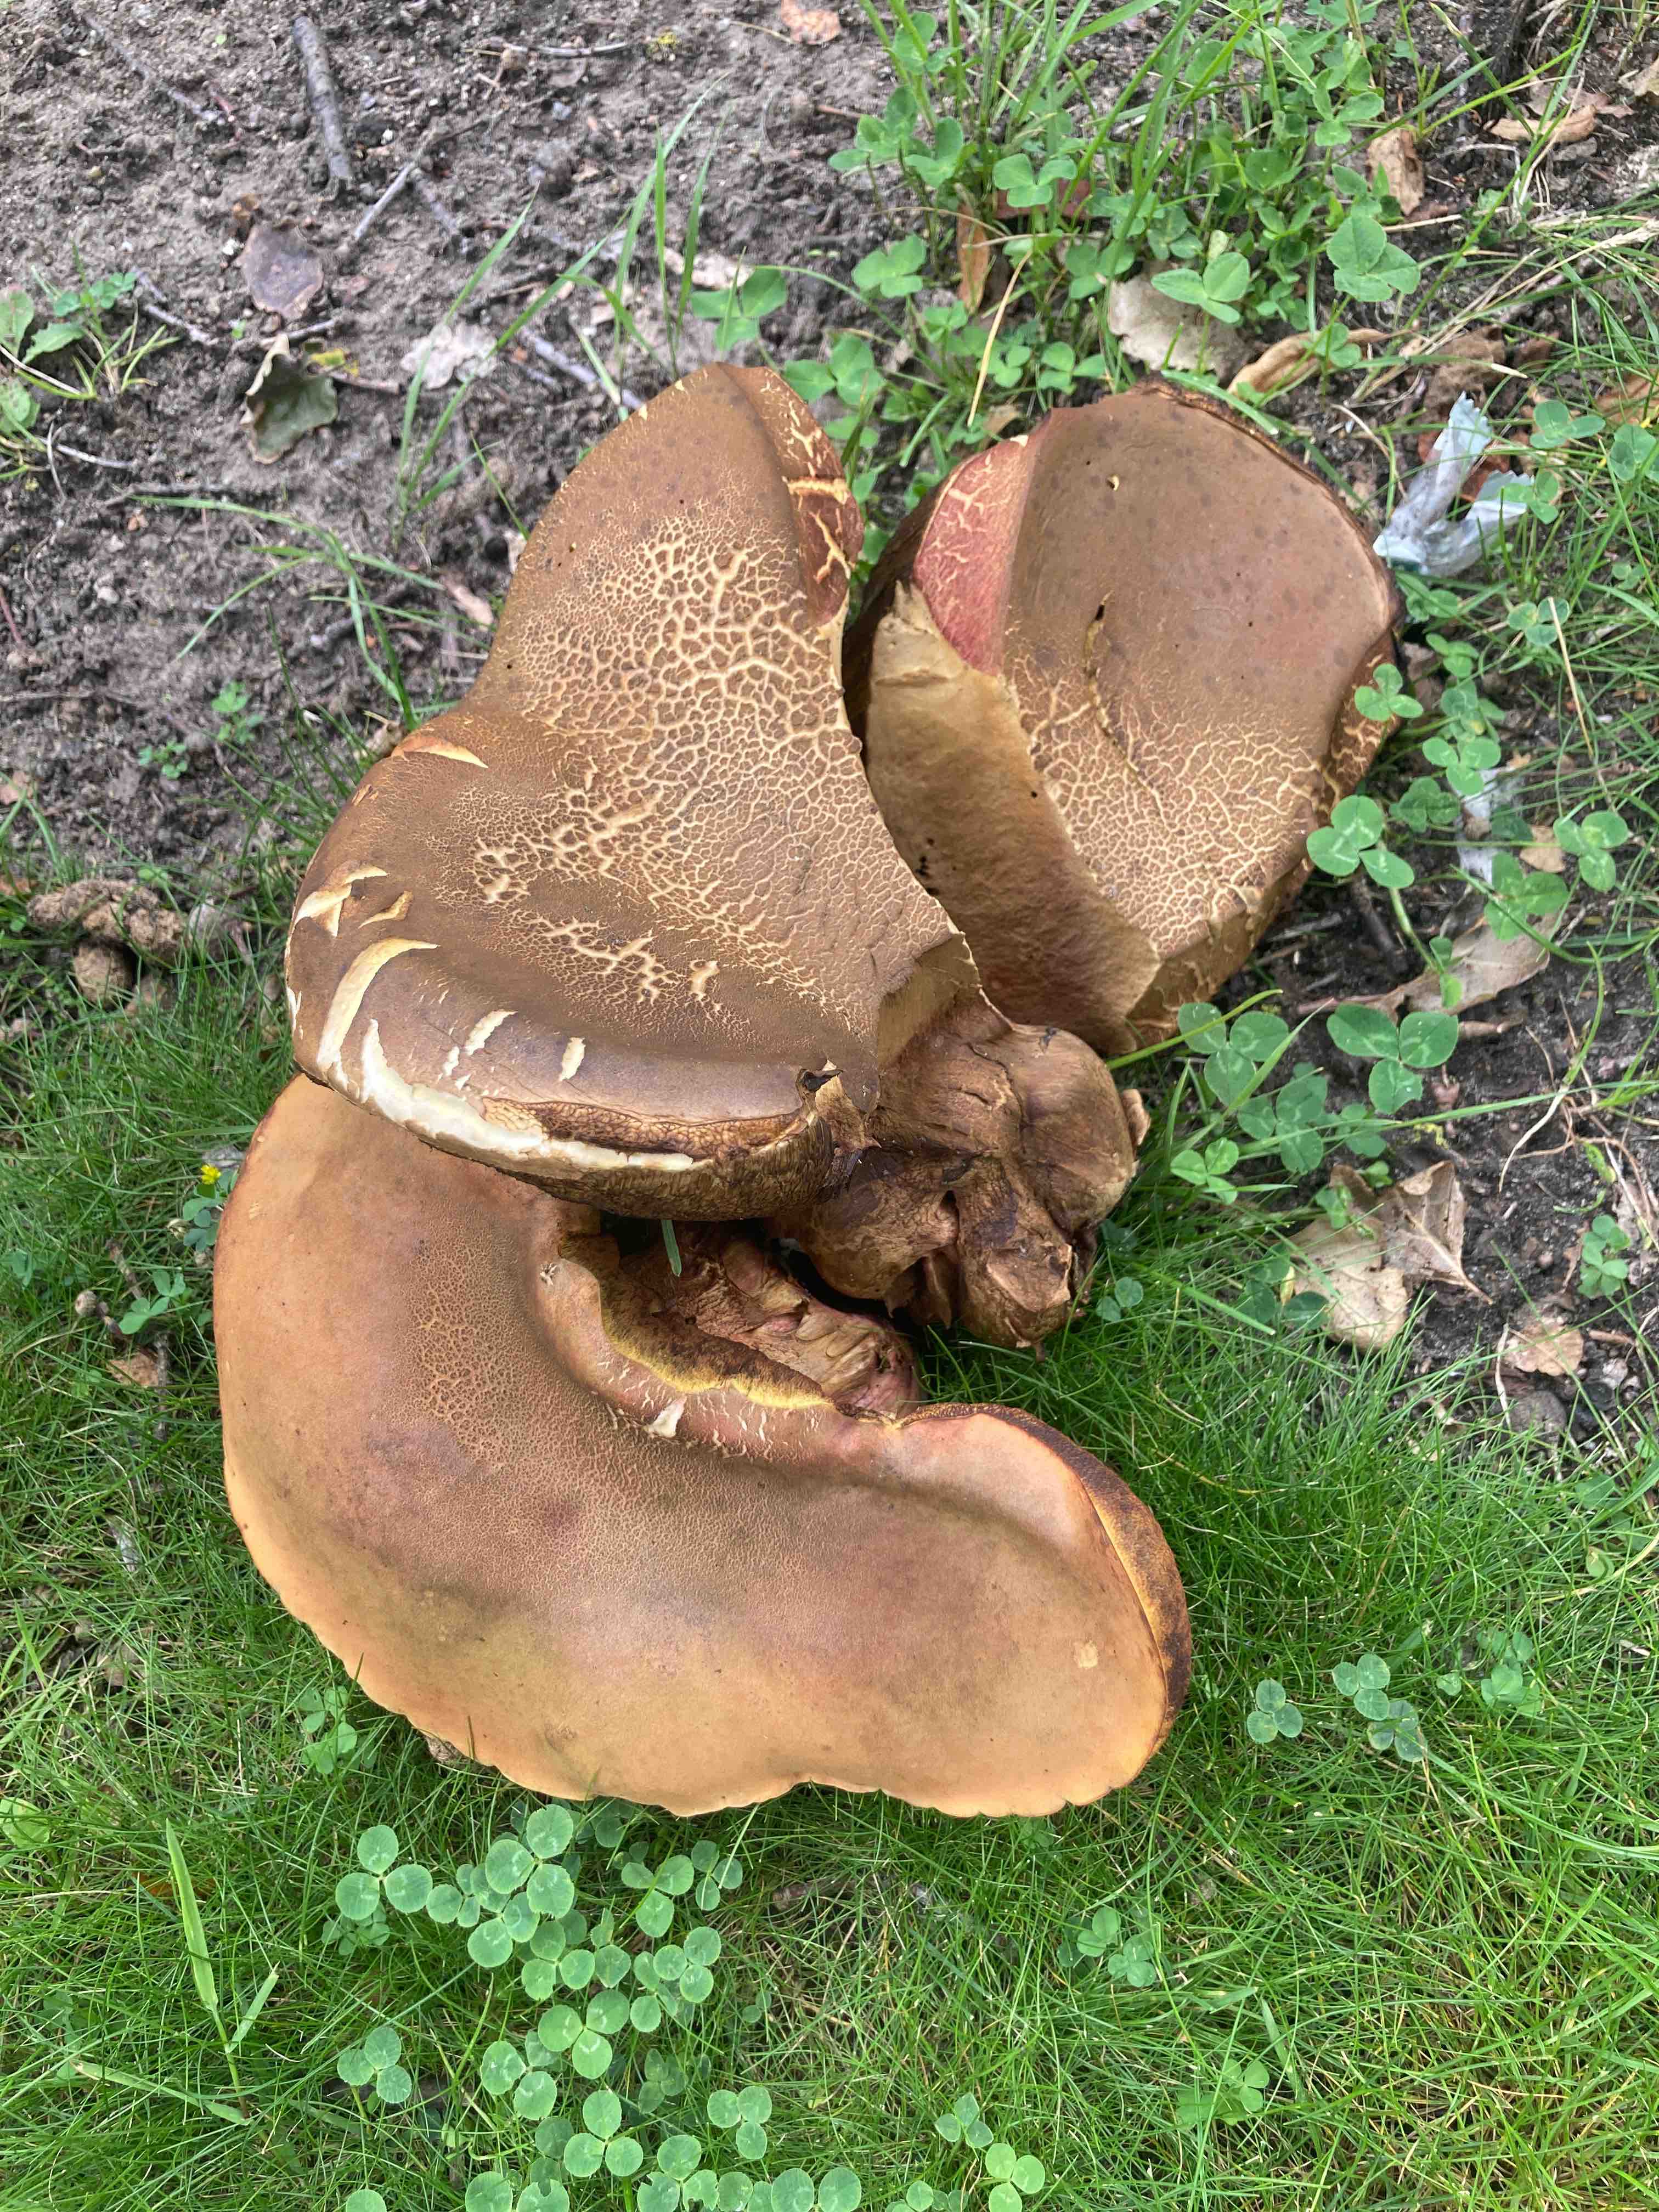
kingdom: Fungi
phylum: Basidiomycota
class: Agaricomycetes
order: Boletales
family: Boletaceae
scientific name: Boletaceae
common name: rørhatfamilien
